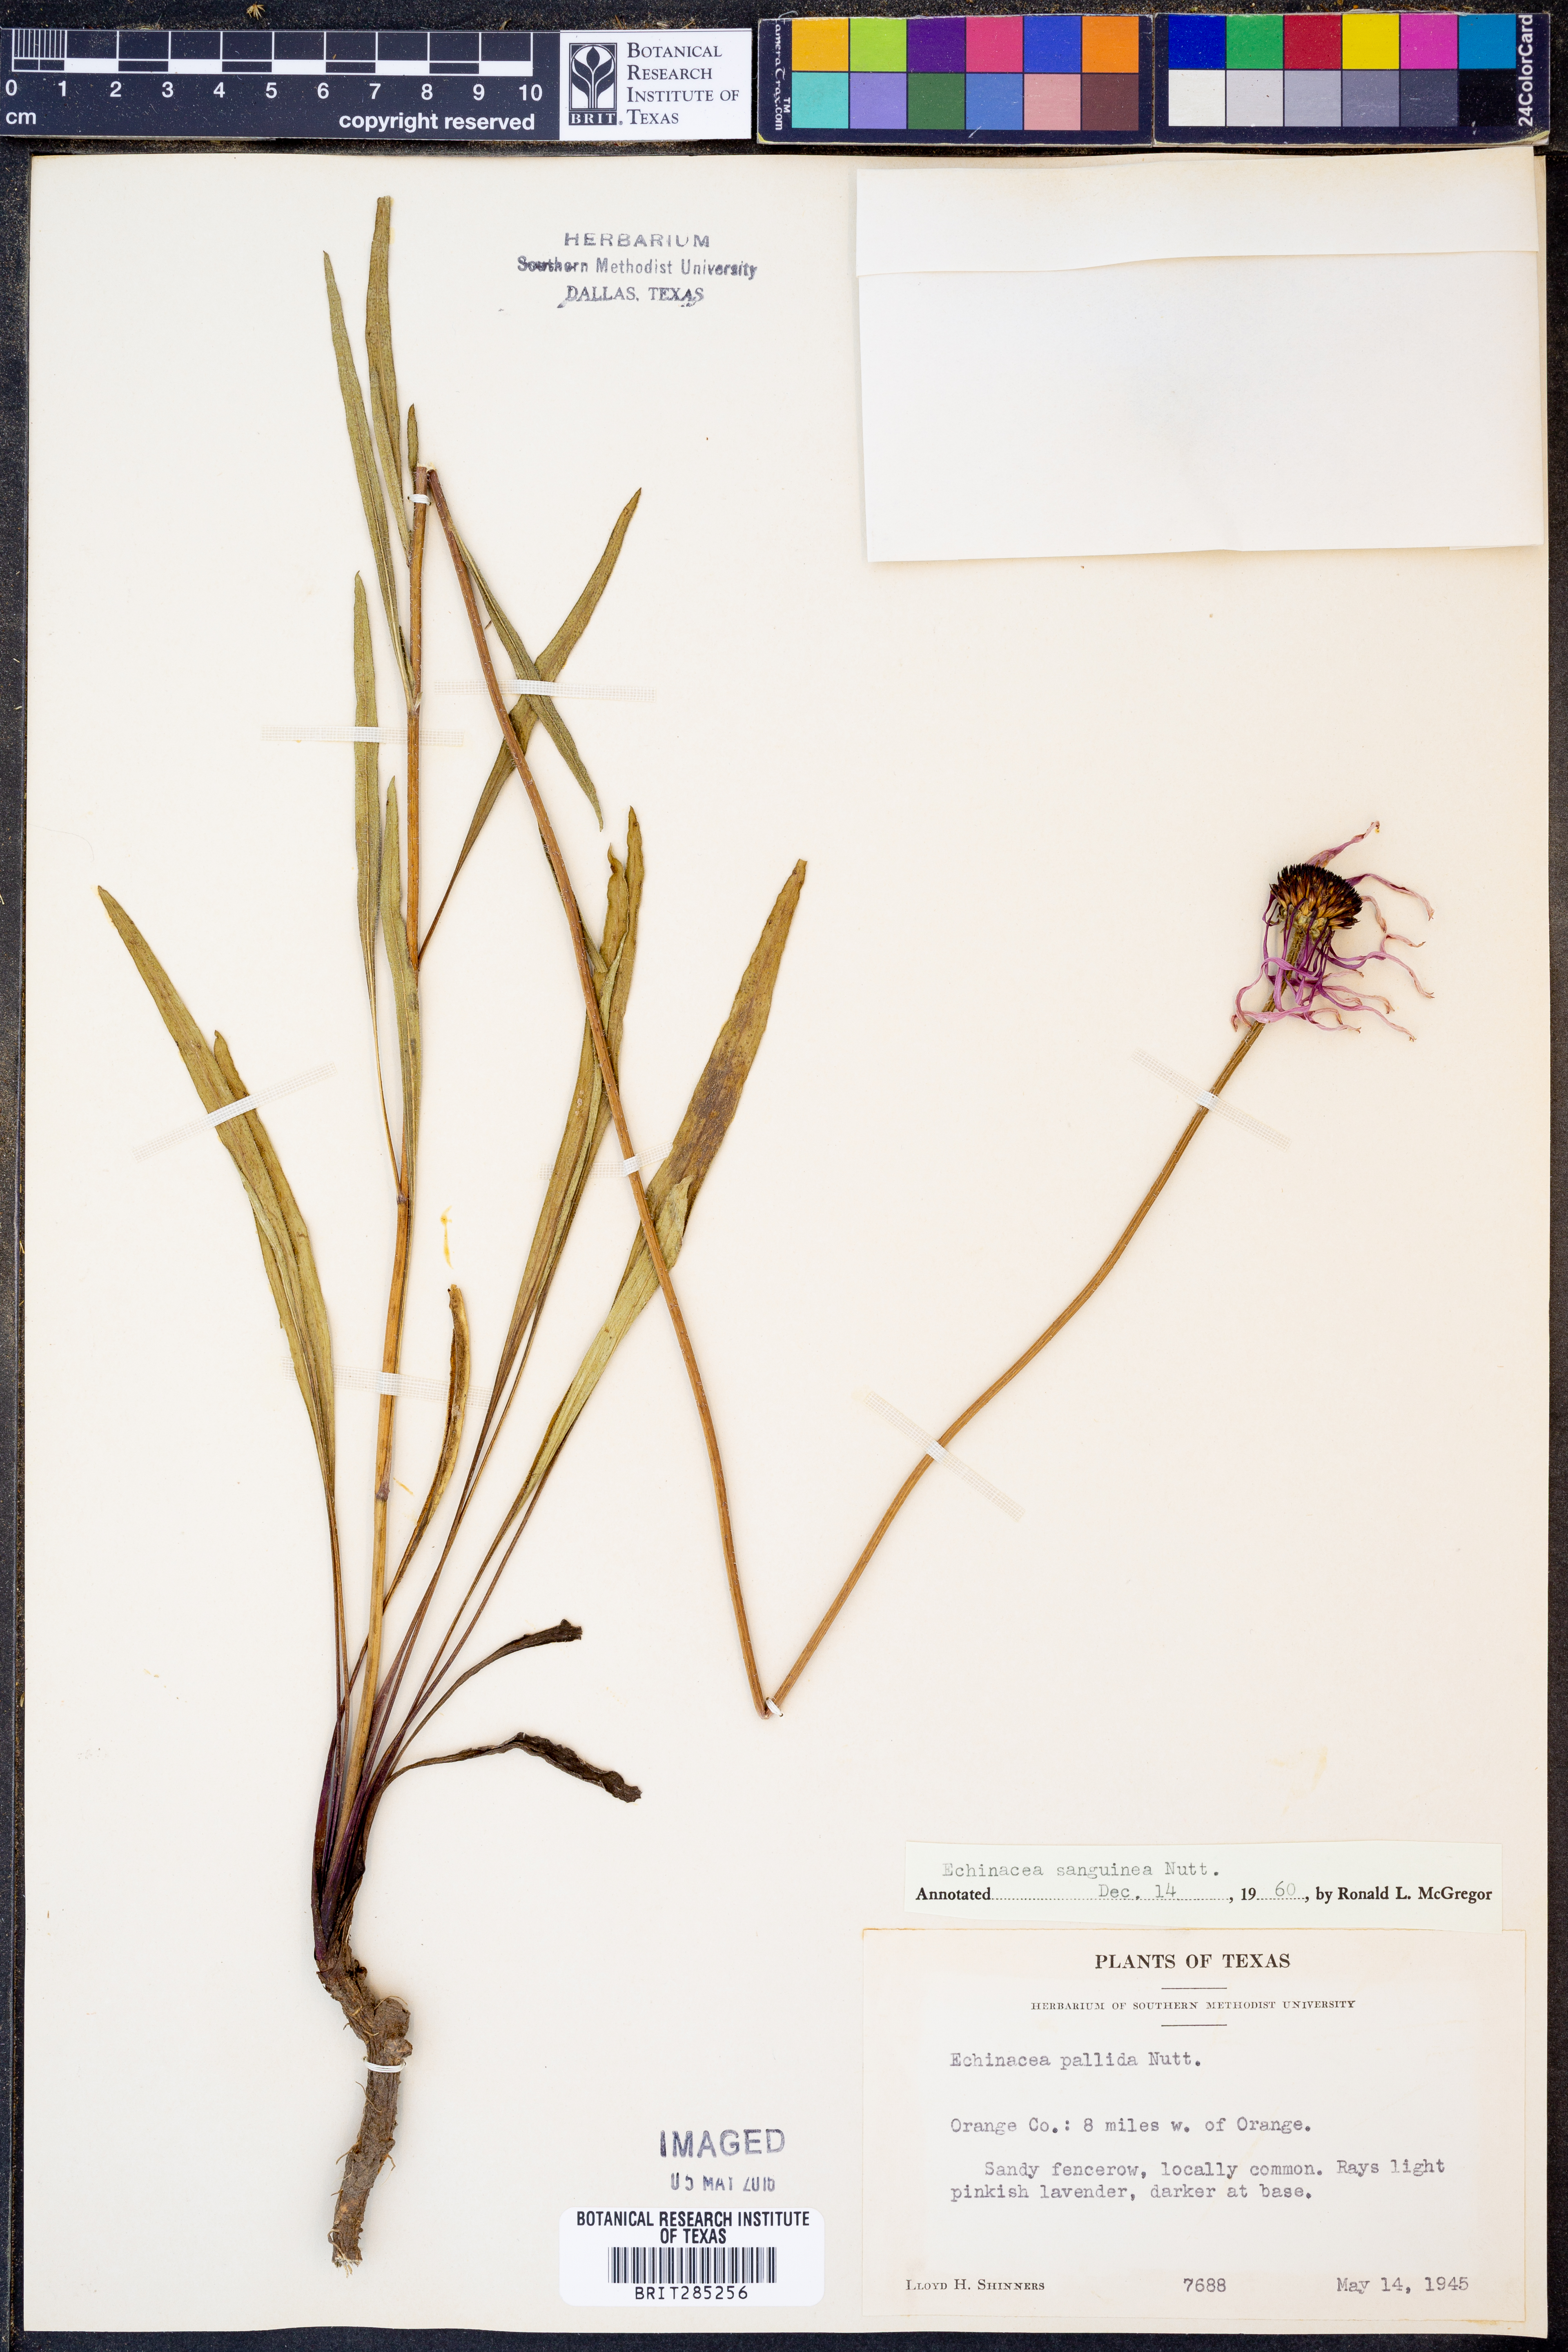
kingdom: Plantae
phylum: Tracheophyta
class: Magnoliopsida
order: Asterales
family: Asteraceae
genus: Echinacea
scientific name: Echinacea sanguinea
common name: Sanguine purple-coneflower
